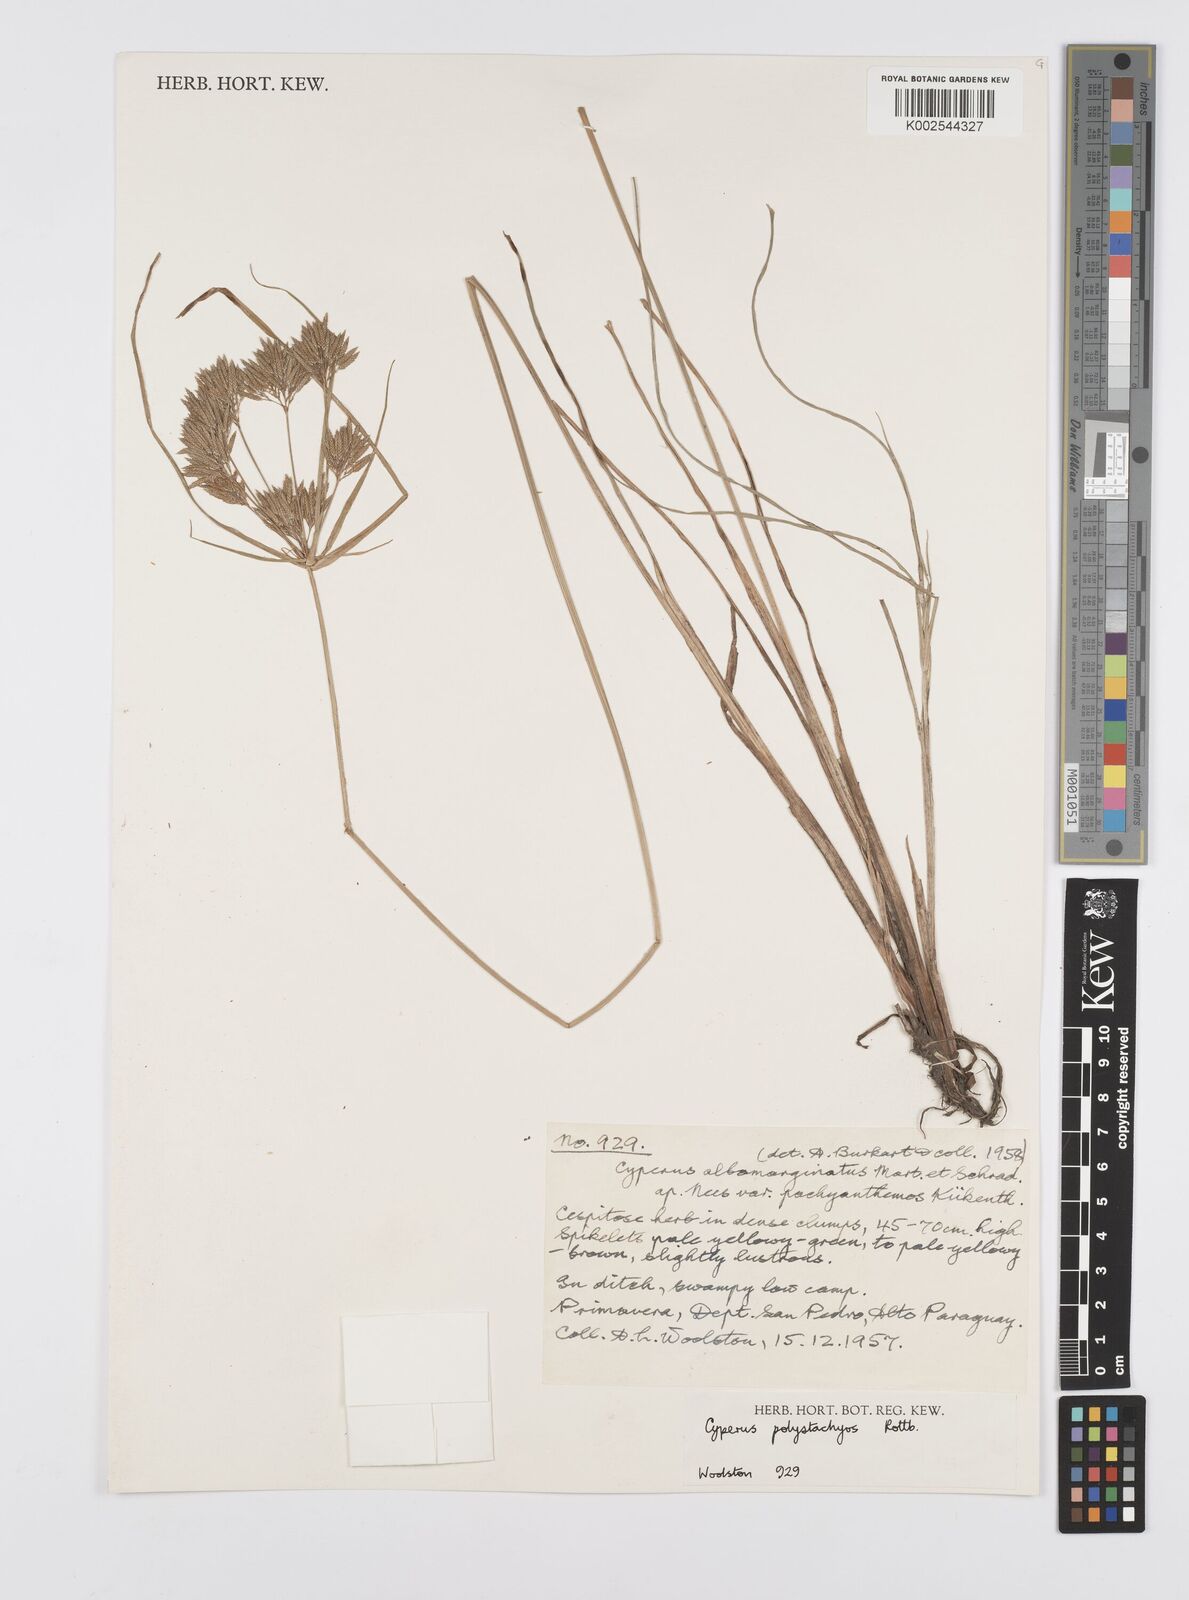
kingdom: Plantae
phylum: Tracheophyta
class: Liliopsida
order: Poales
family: Cyperaceae
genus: Cyperus
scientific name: Cyperus polystachyos
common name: Bunchy flat sedge
